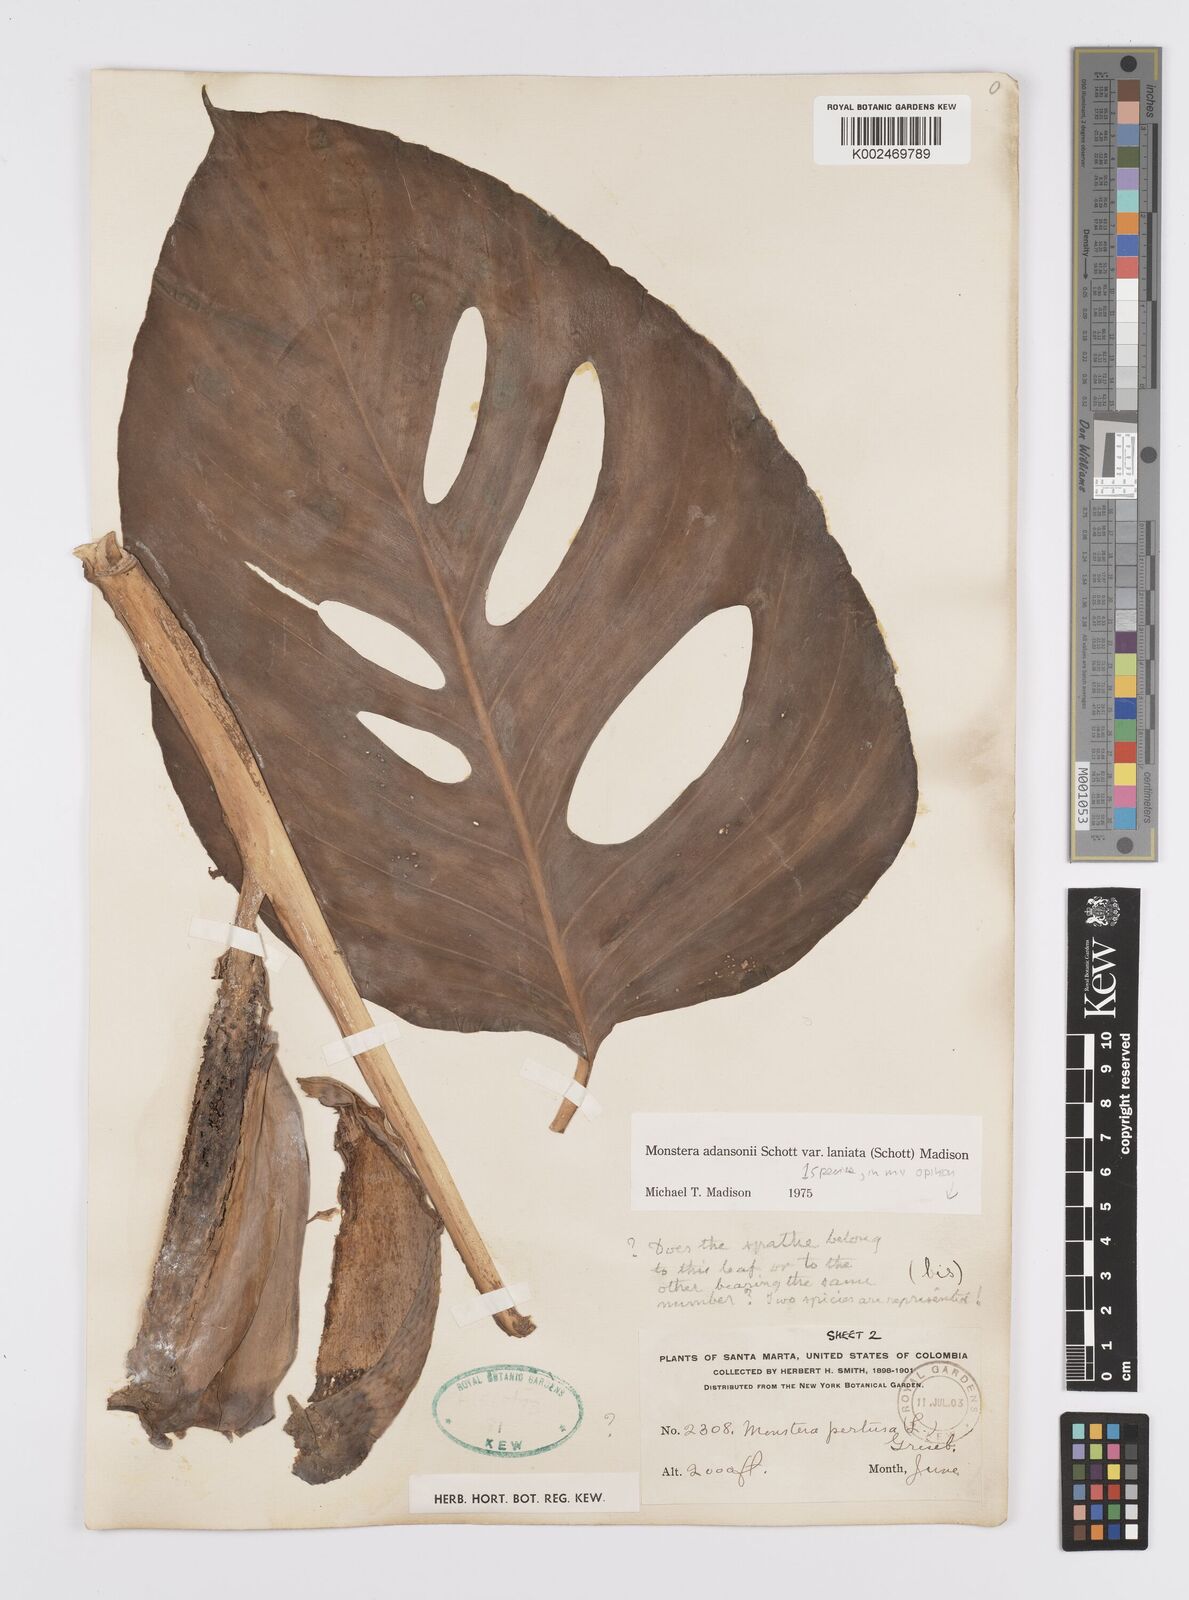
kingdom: Plantae
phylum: Tracheophyta
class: Liliopsida
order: Alismatales
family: Araceae
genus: Monstera
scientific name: Monstera adansonii
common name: Tarovine
